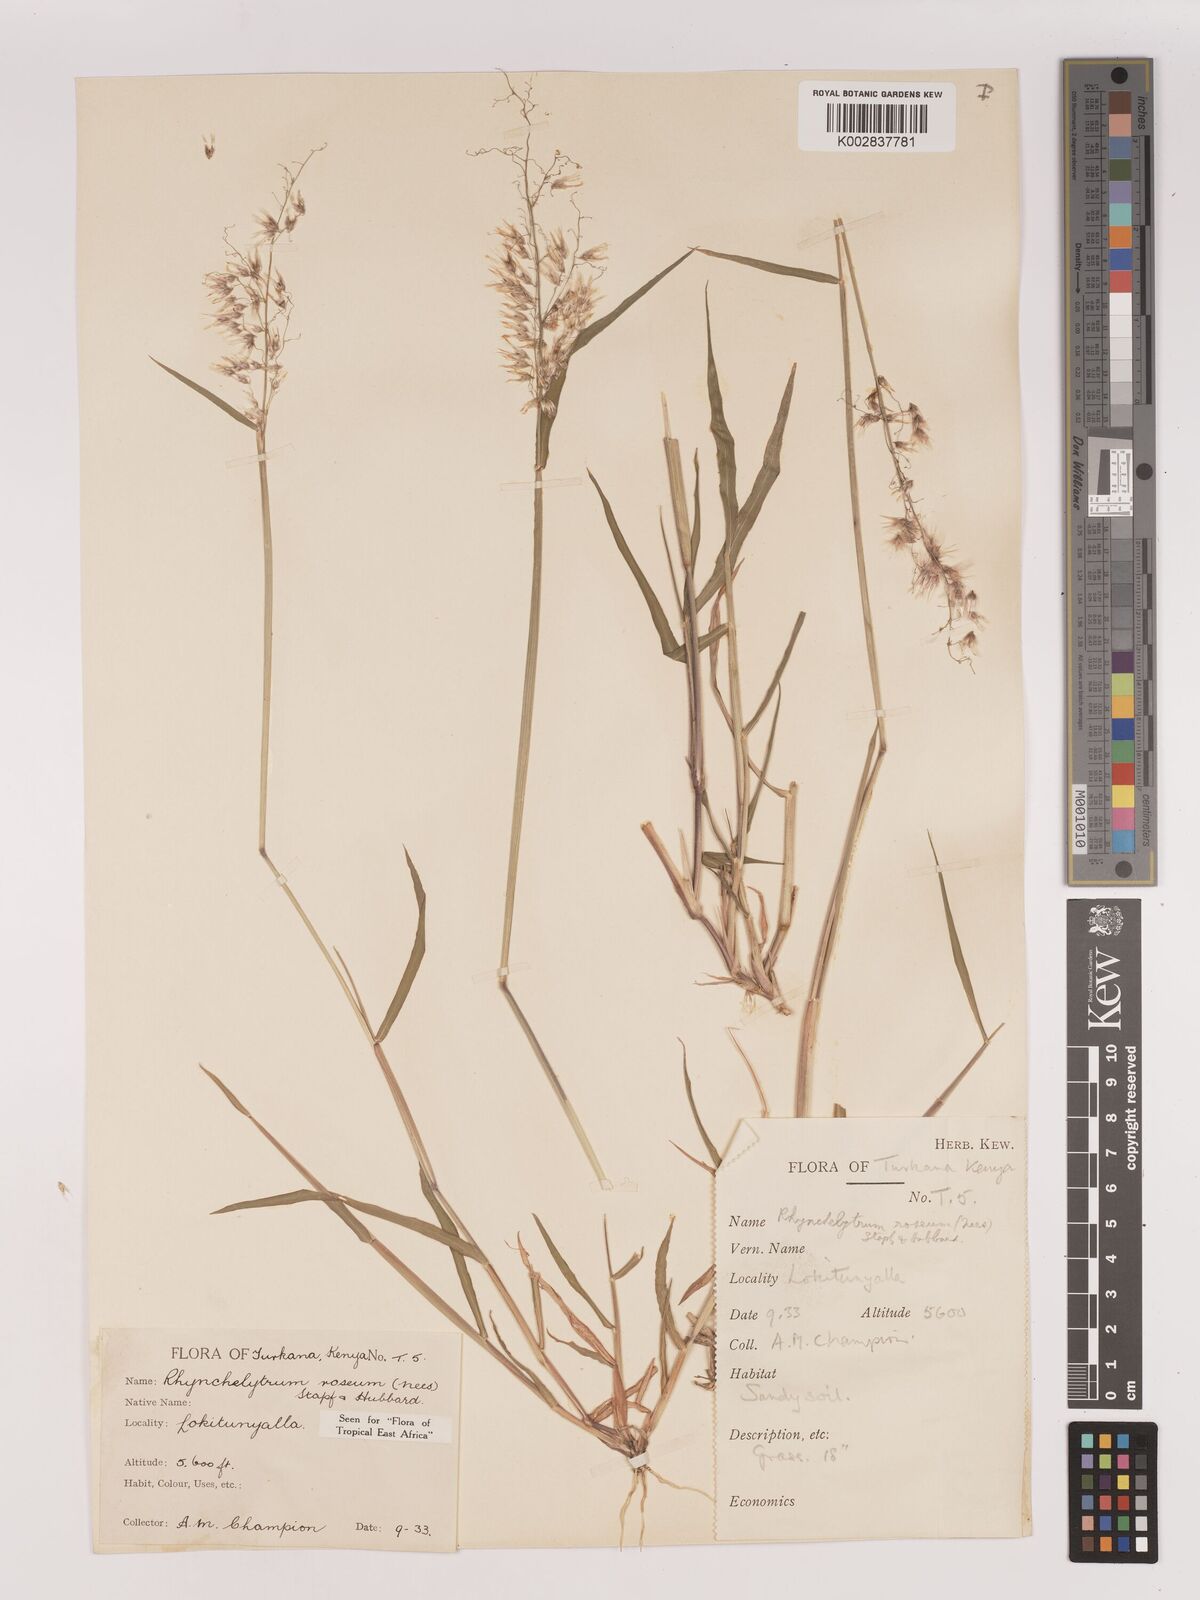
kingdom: Plantae
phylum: Tracheophyta
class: Liliopsida
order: Poales
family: Poaceae
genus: Melinis
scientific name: Melinis repens
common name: Rose natal grass
